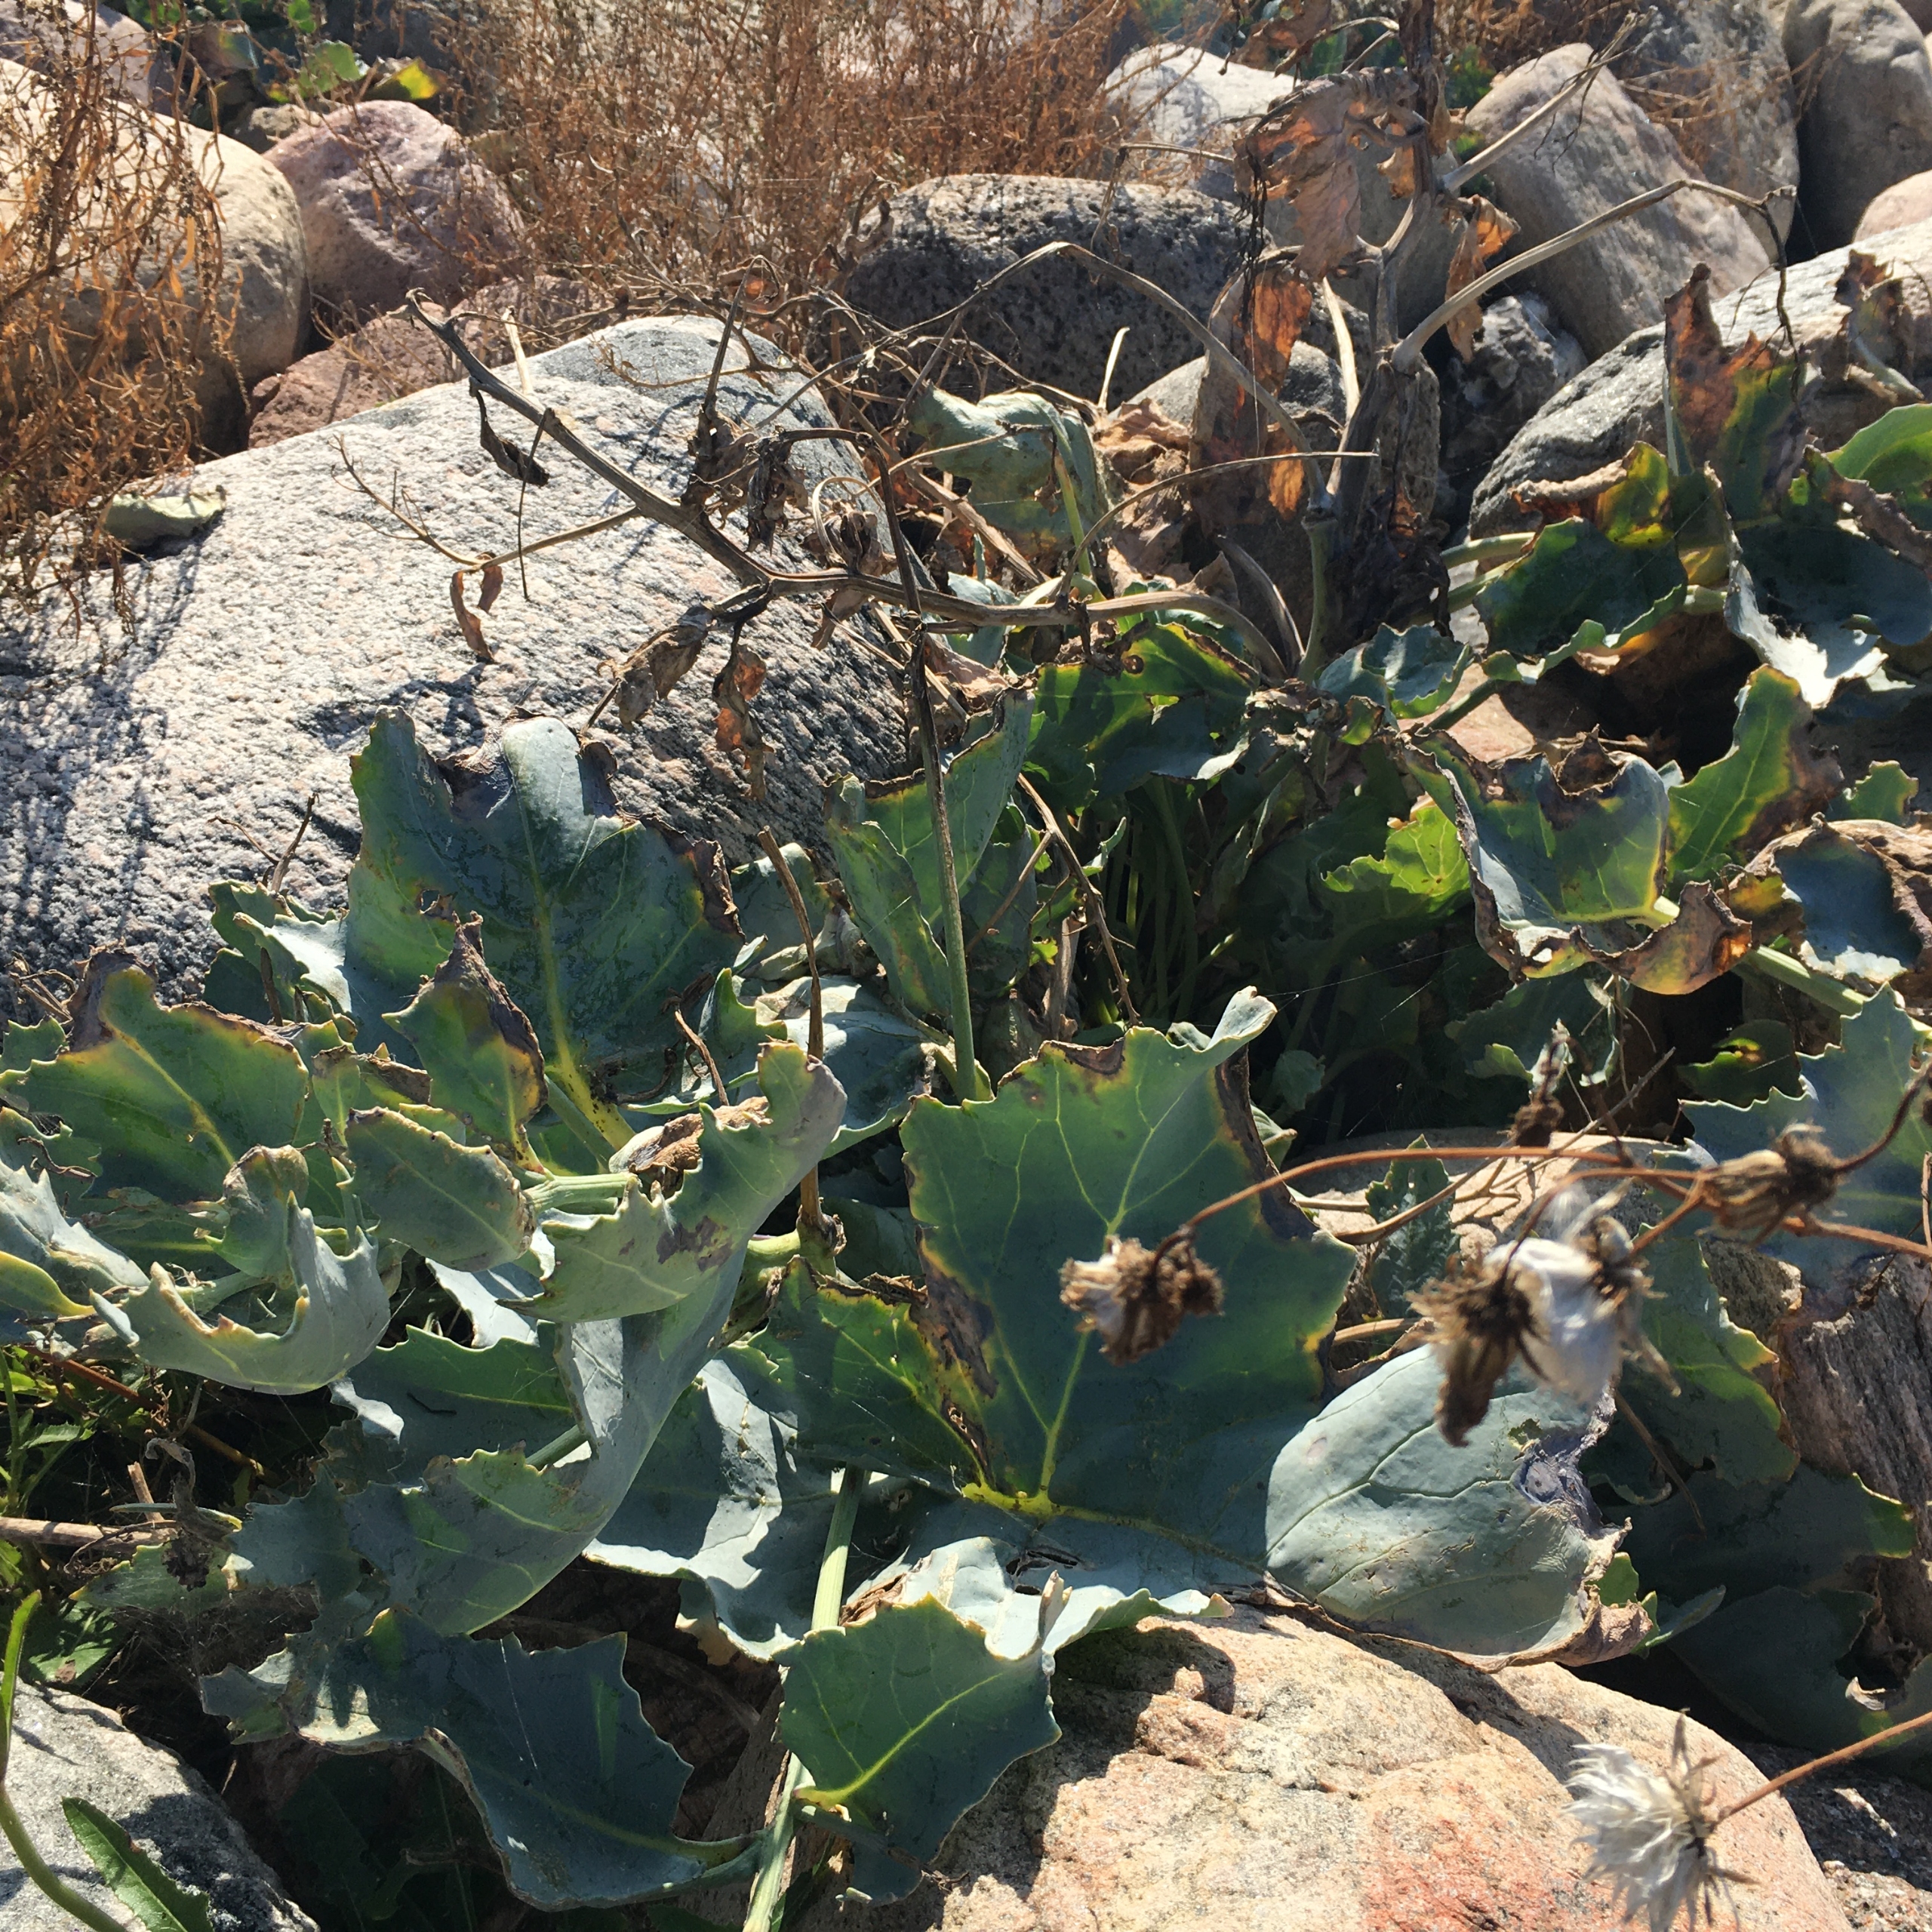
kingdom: Plantae
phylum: Tracheophyta
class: Magnoliopsida
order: Brassicales
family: Brassicaceae
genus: Crambe
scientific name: Crambe maritima
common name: Strandkål
